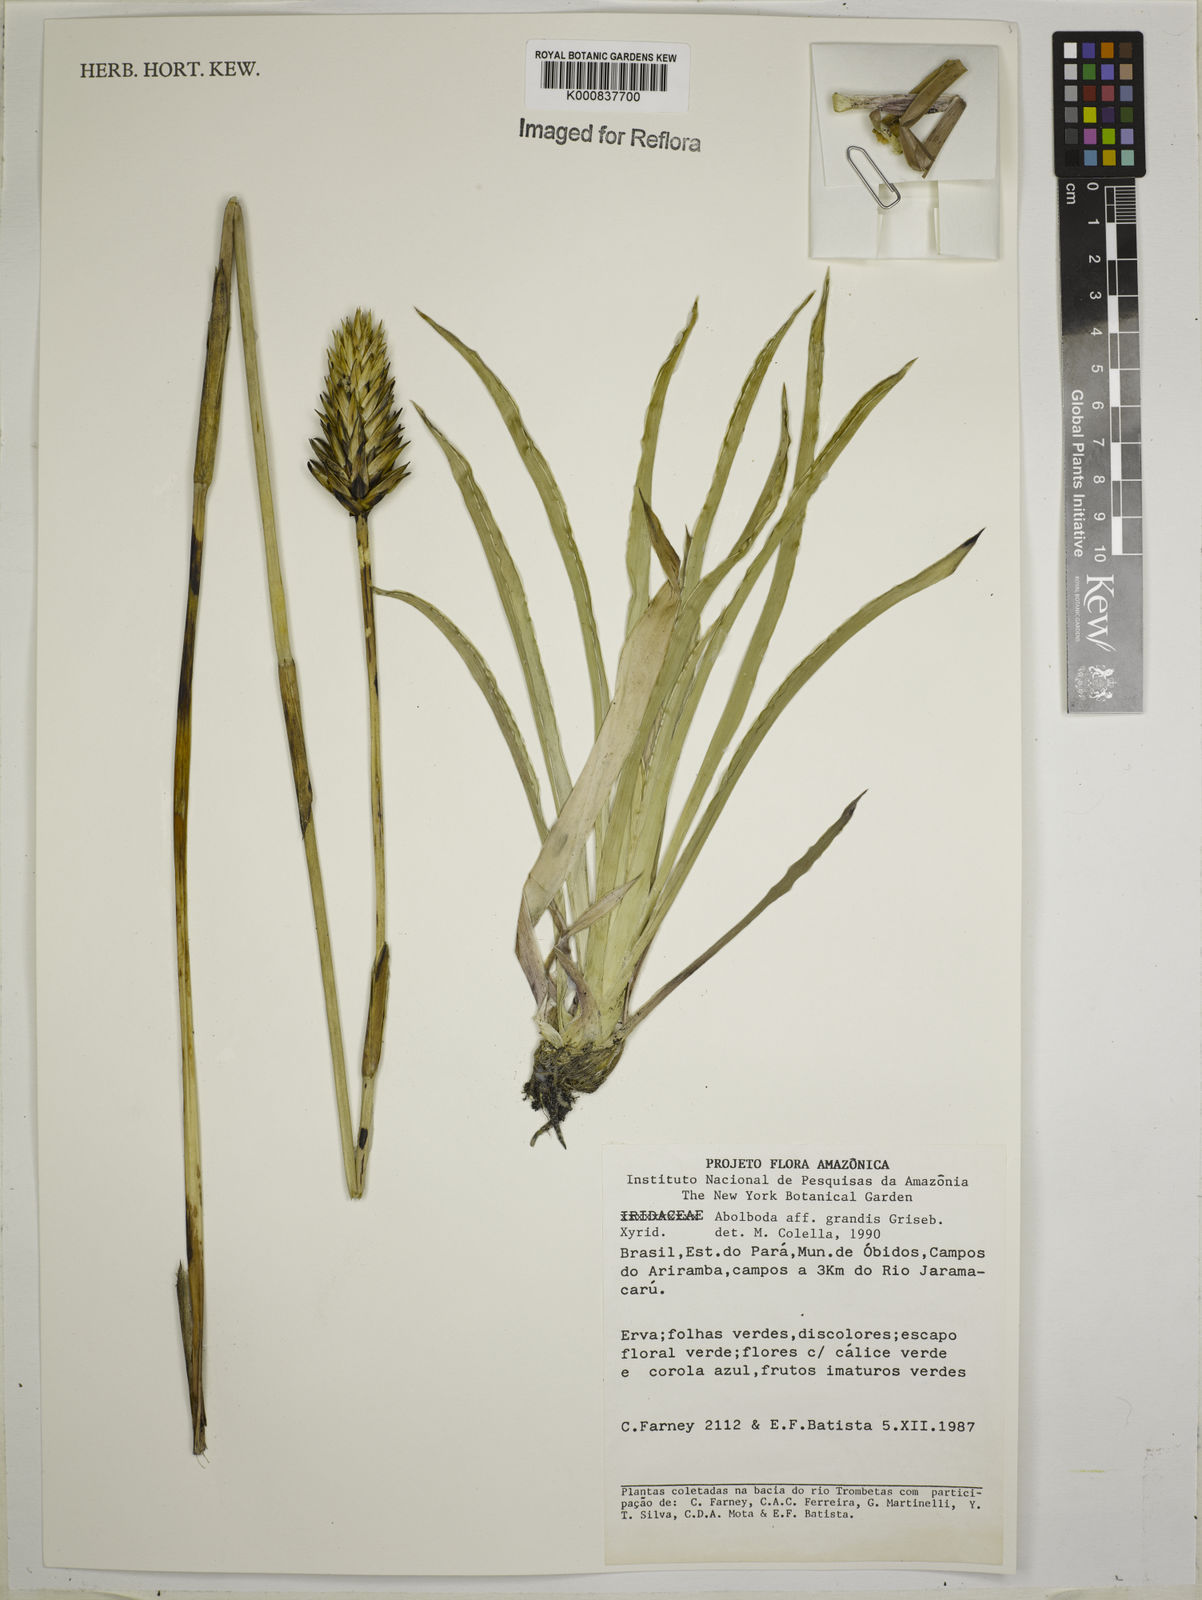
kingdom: Plantae
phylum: Tracheophyta
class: Liliopsida
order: Poales
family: Xyridaceae
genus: Abolboda
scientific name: Abolboda grandis
